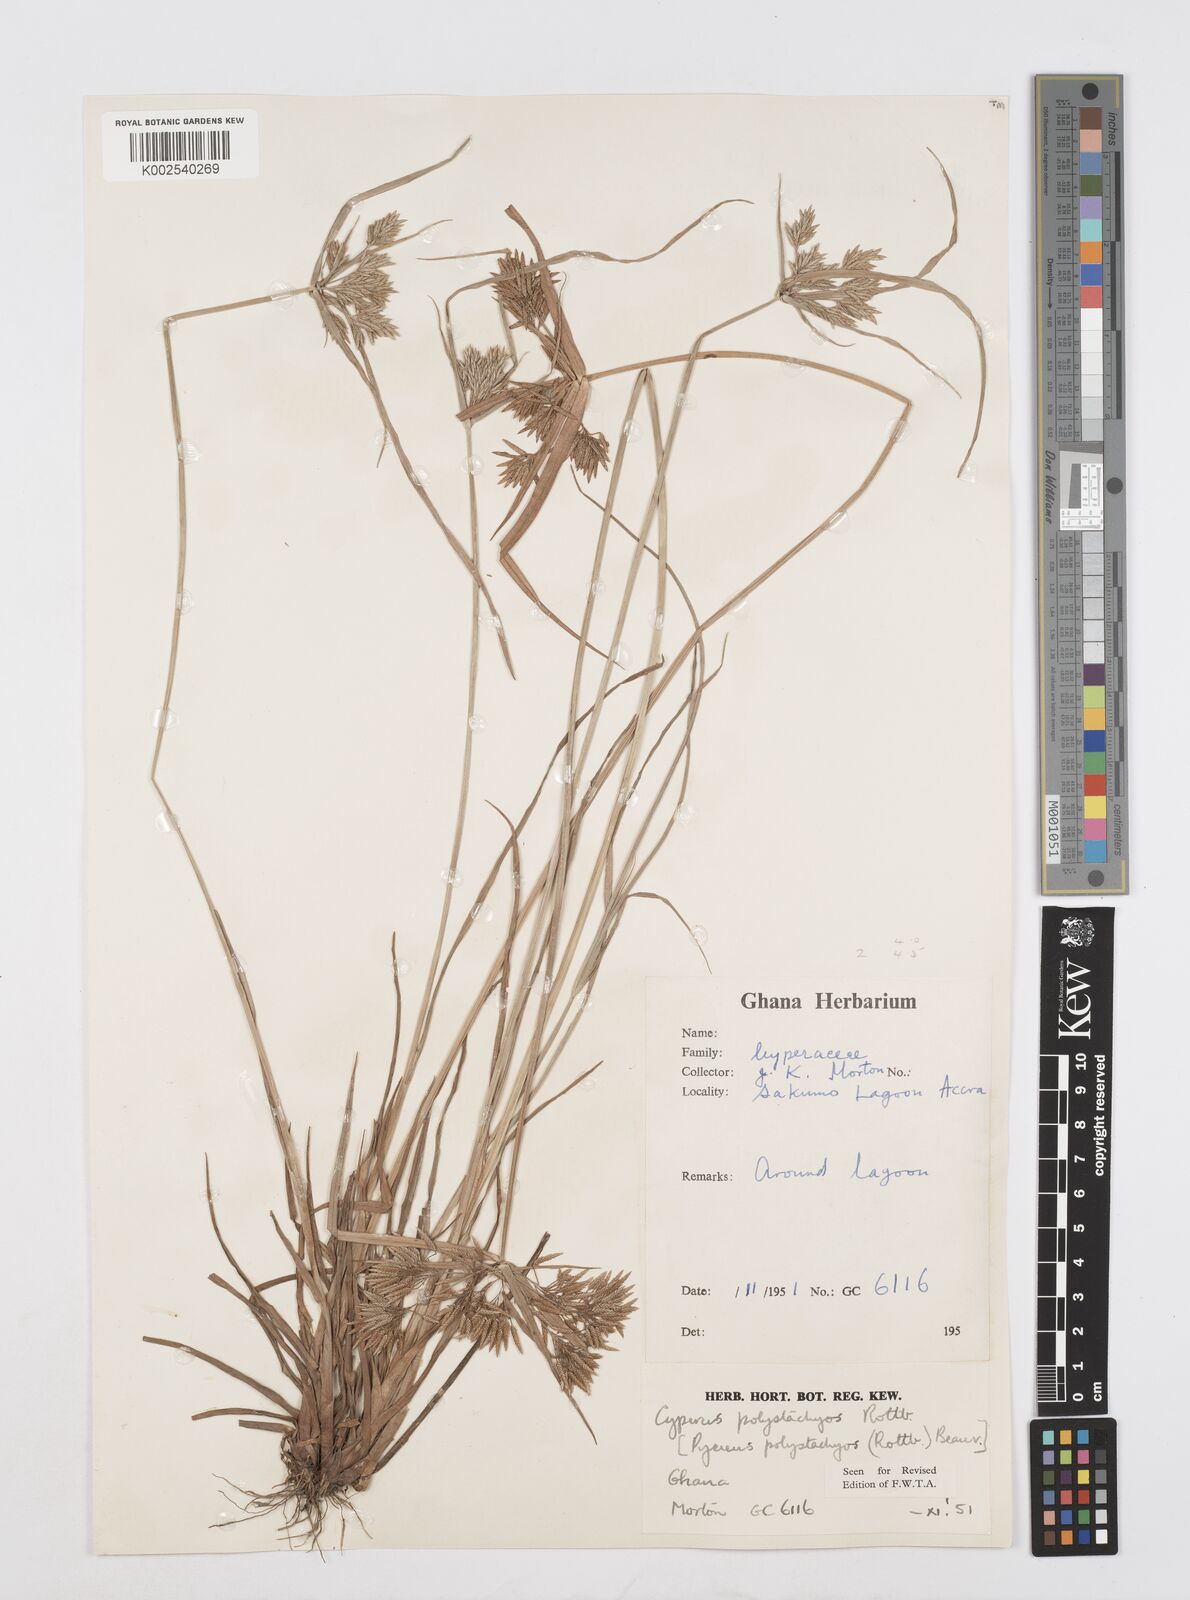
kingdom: Plantae
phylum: Tracheophyta
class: Liliopsida
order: Poales
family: Cyperaceae
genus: Cyperus
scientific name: Cyperus polystachyos
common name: Bunchy flat sedge
